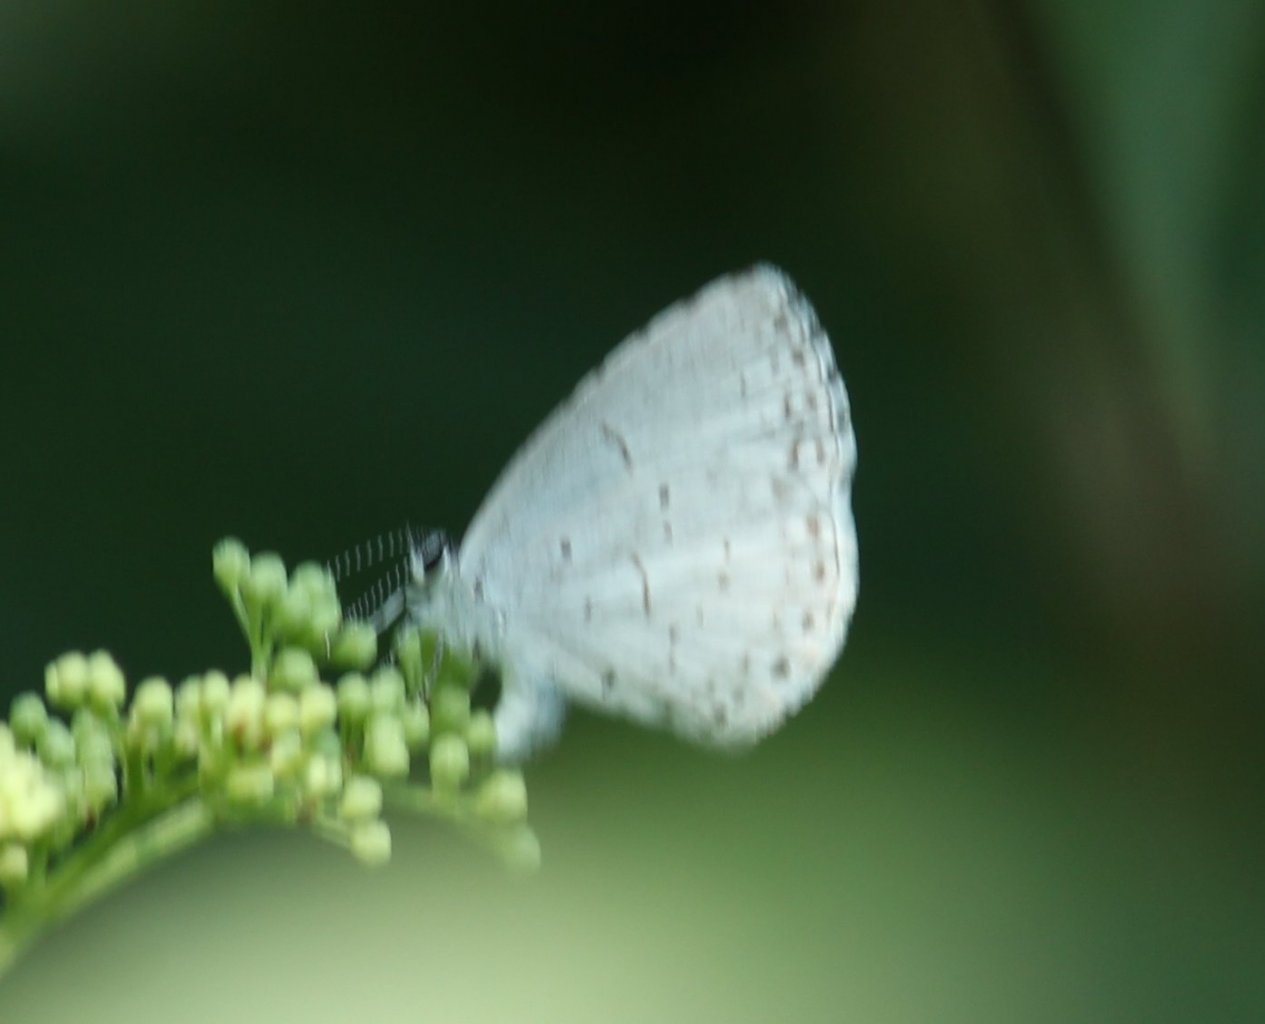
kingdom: Animalia
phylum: Arthropoda
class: Insecta
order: Lepidoptera
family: Lycaenidae
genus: Celastrina
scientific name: Celastrina
